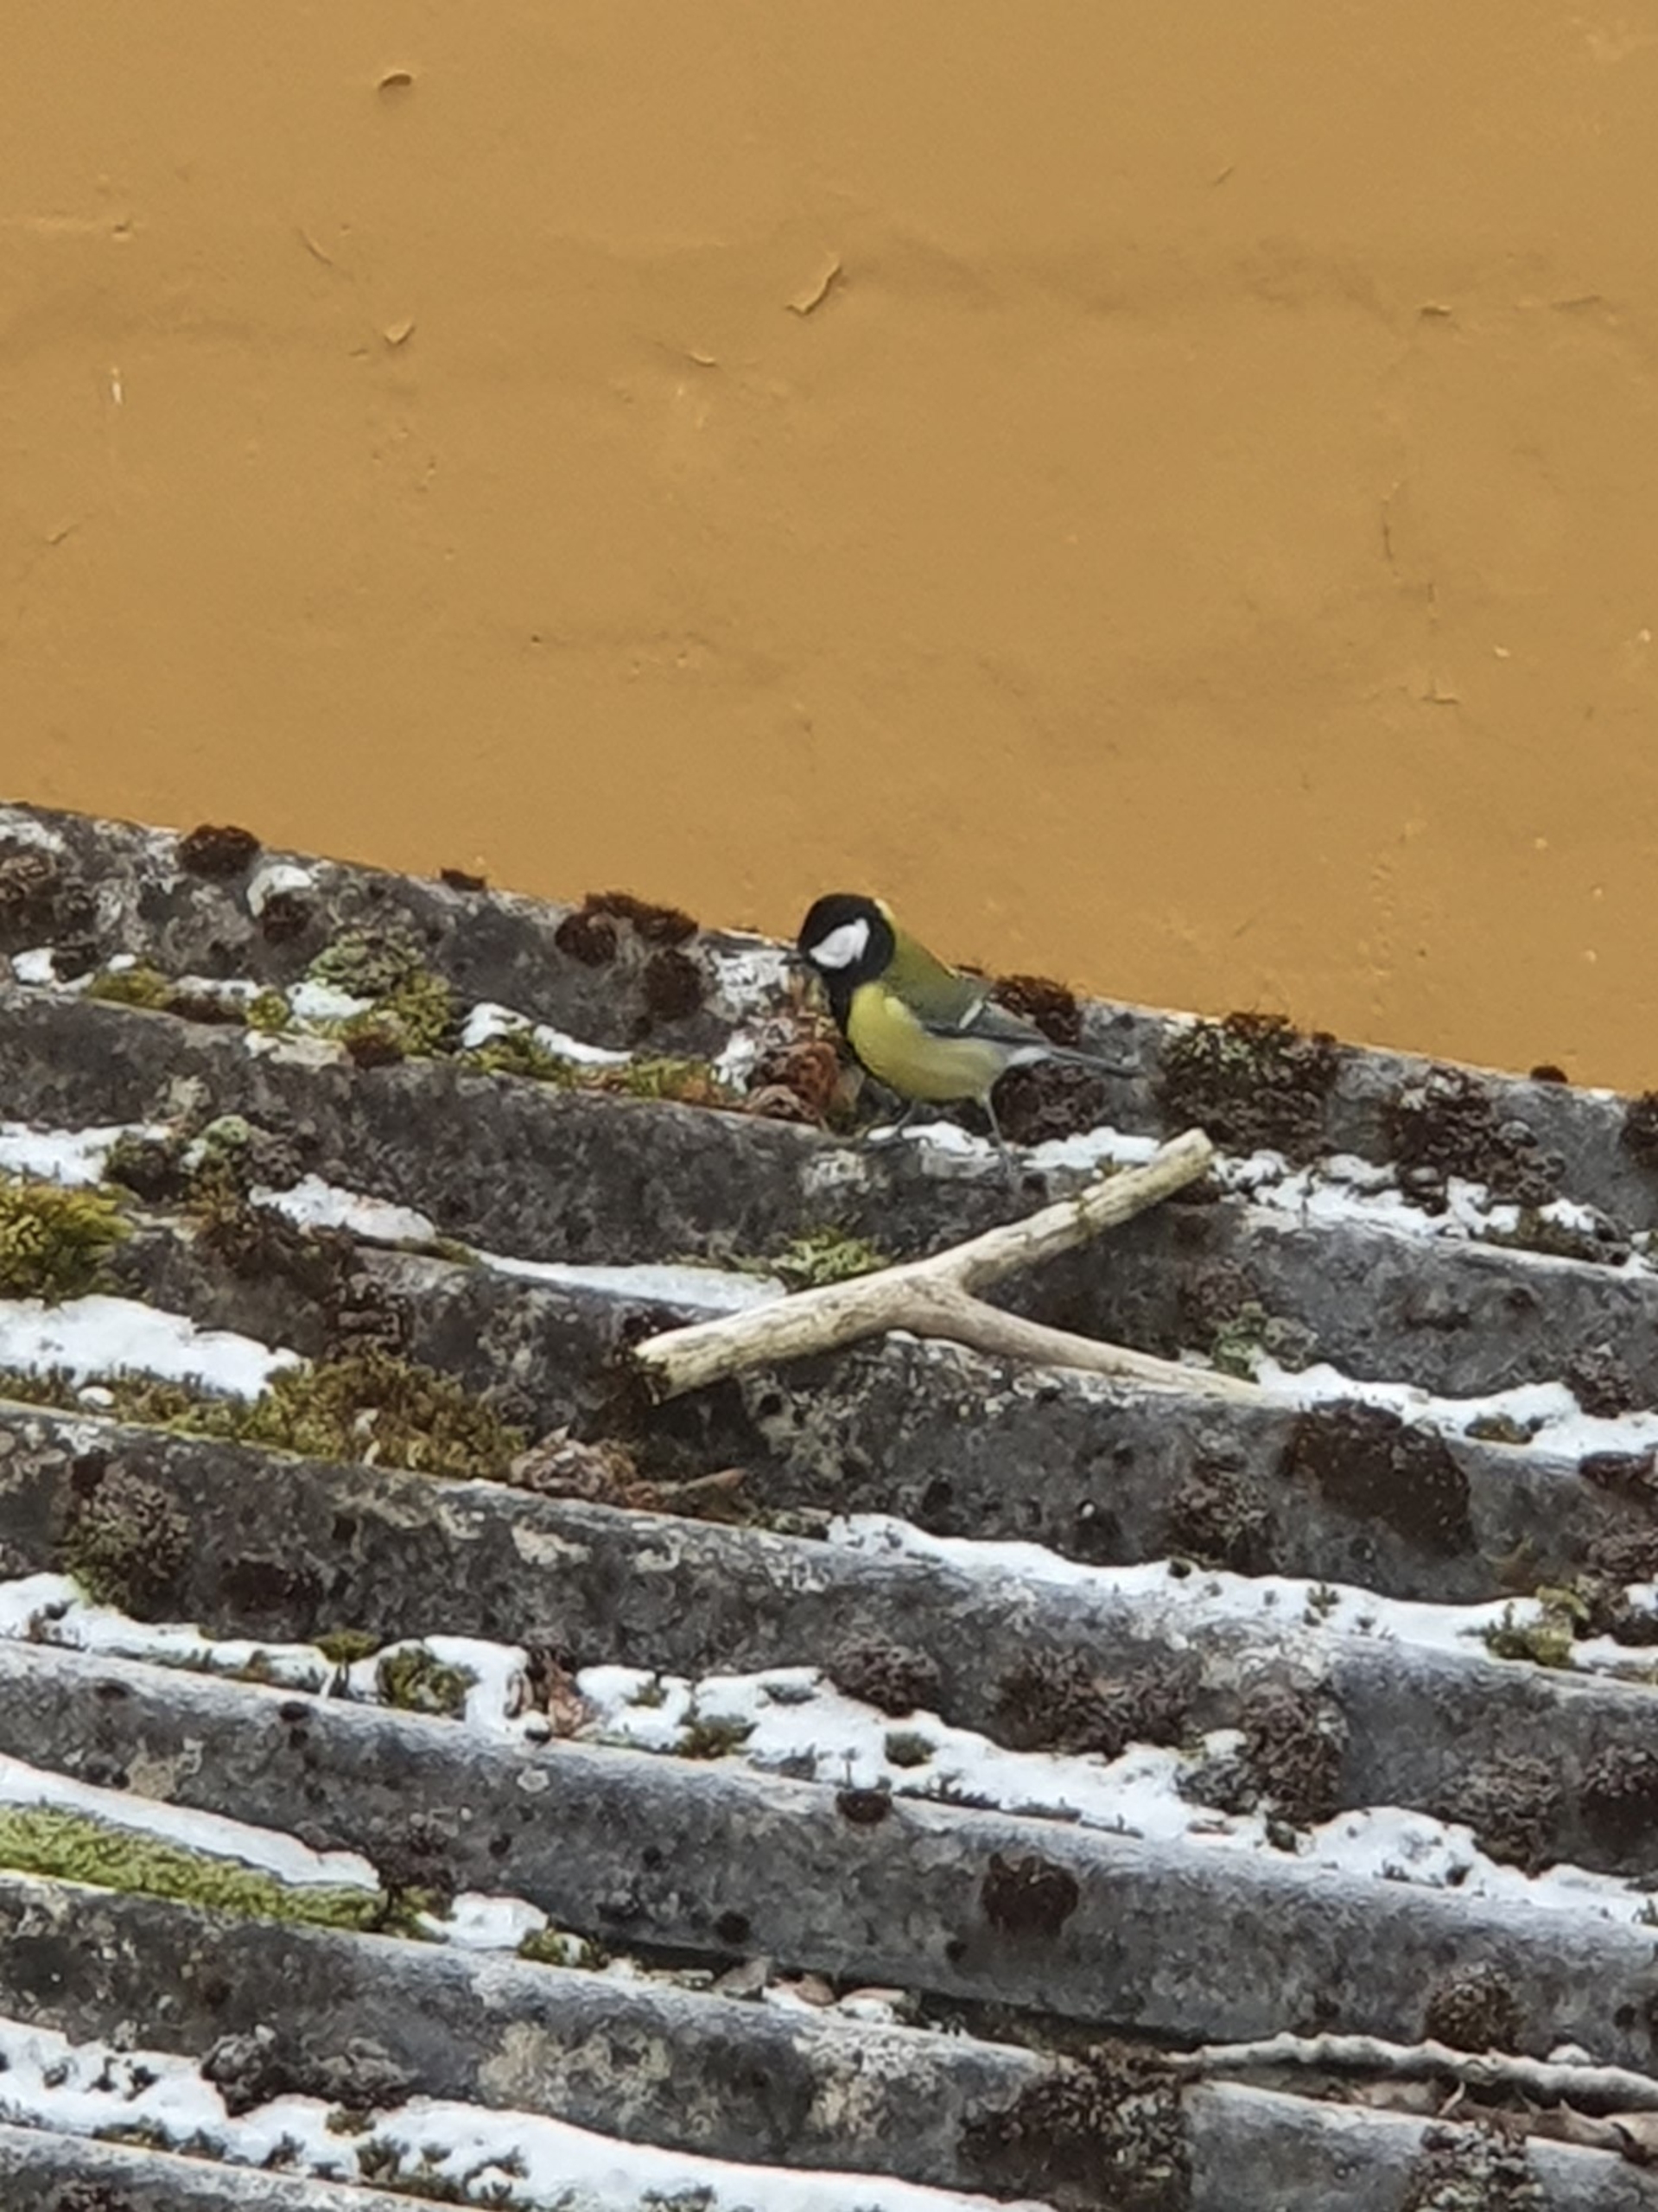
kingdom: Animalia
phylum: Chordata
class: Aves
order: Passeriformes
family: Paridae
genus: Parus
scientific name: Parus major
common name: Musvit
